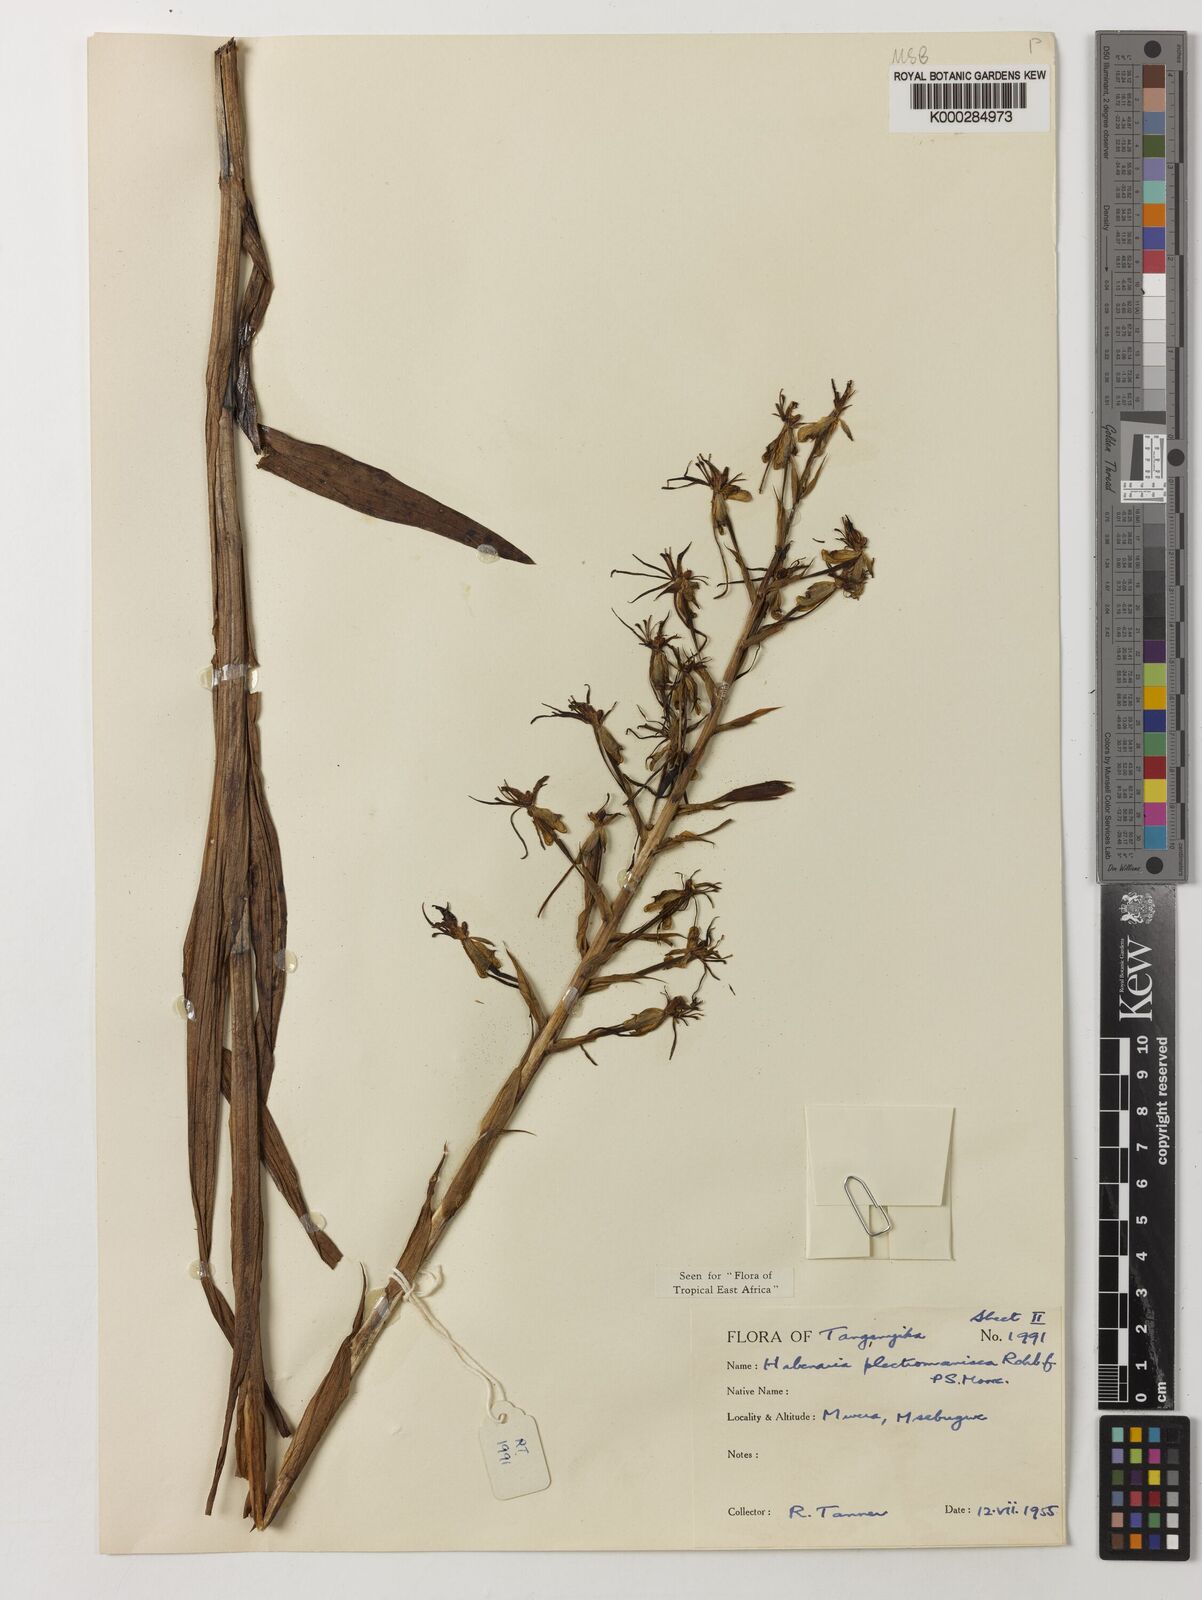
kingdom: Plantae
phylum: Tracheophyta
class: Liliopsida
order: Asparagales
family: Orchidaceae
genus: Habenaria
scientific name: Habenaria plectromaniaca
